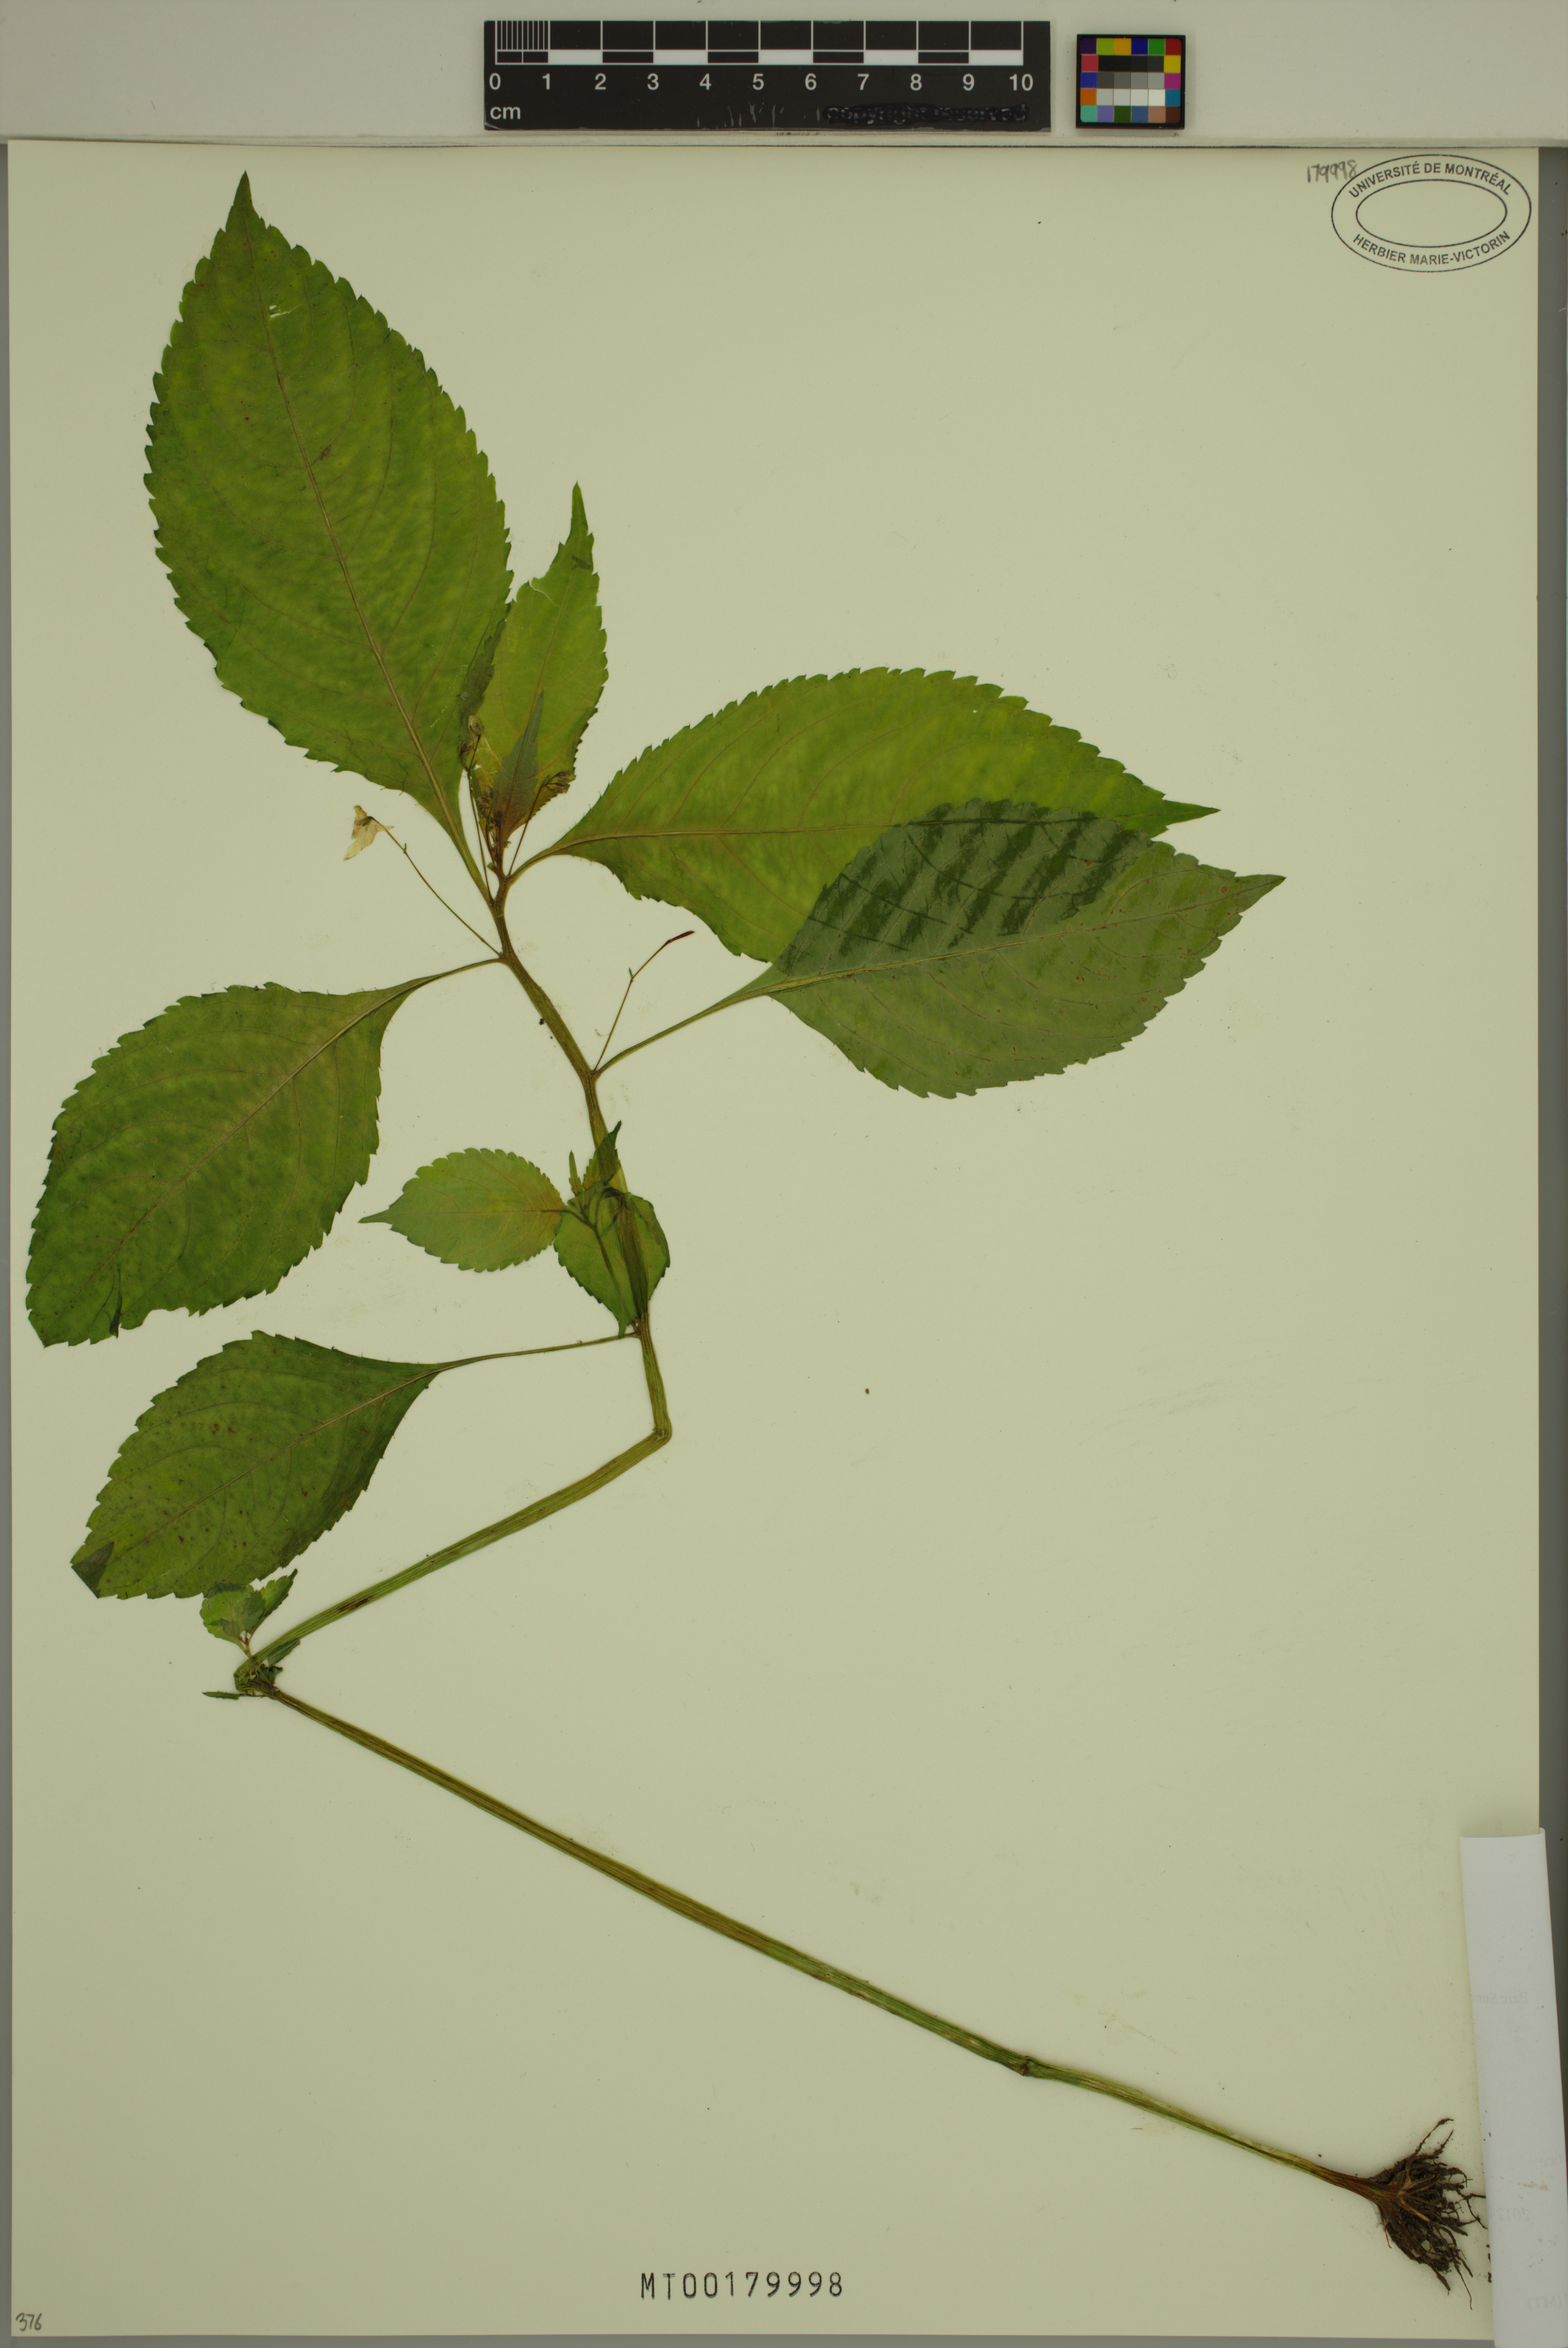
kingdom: Plantae
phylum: Tracheophyta
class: Magnoliopsida
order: Ericales
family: Balsaminaceae
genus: Impatiens
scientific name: Impatiens parviflora
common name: Small balsam
